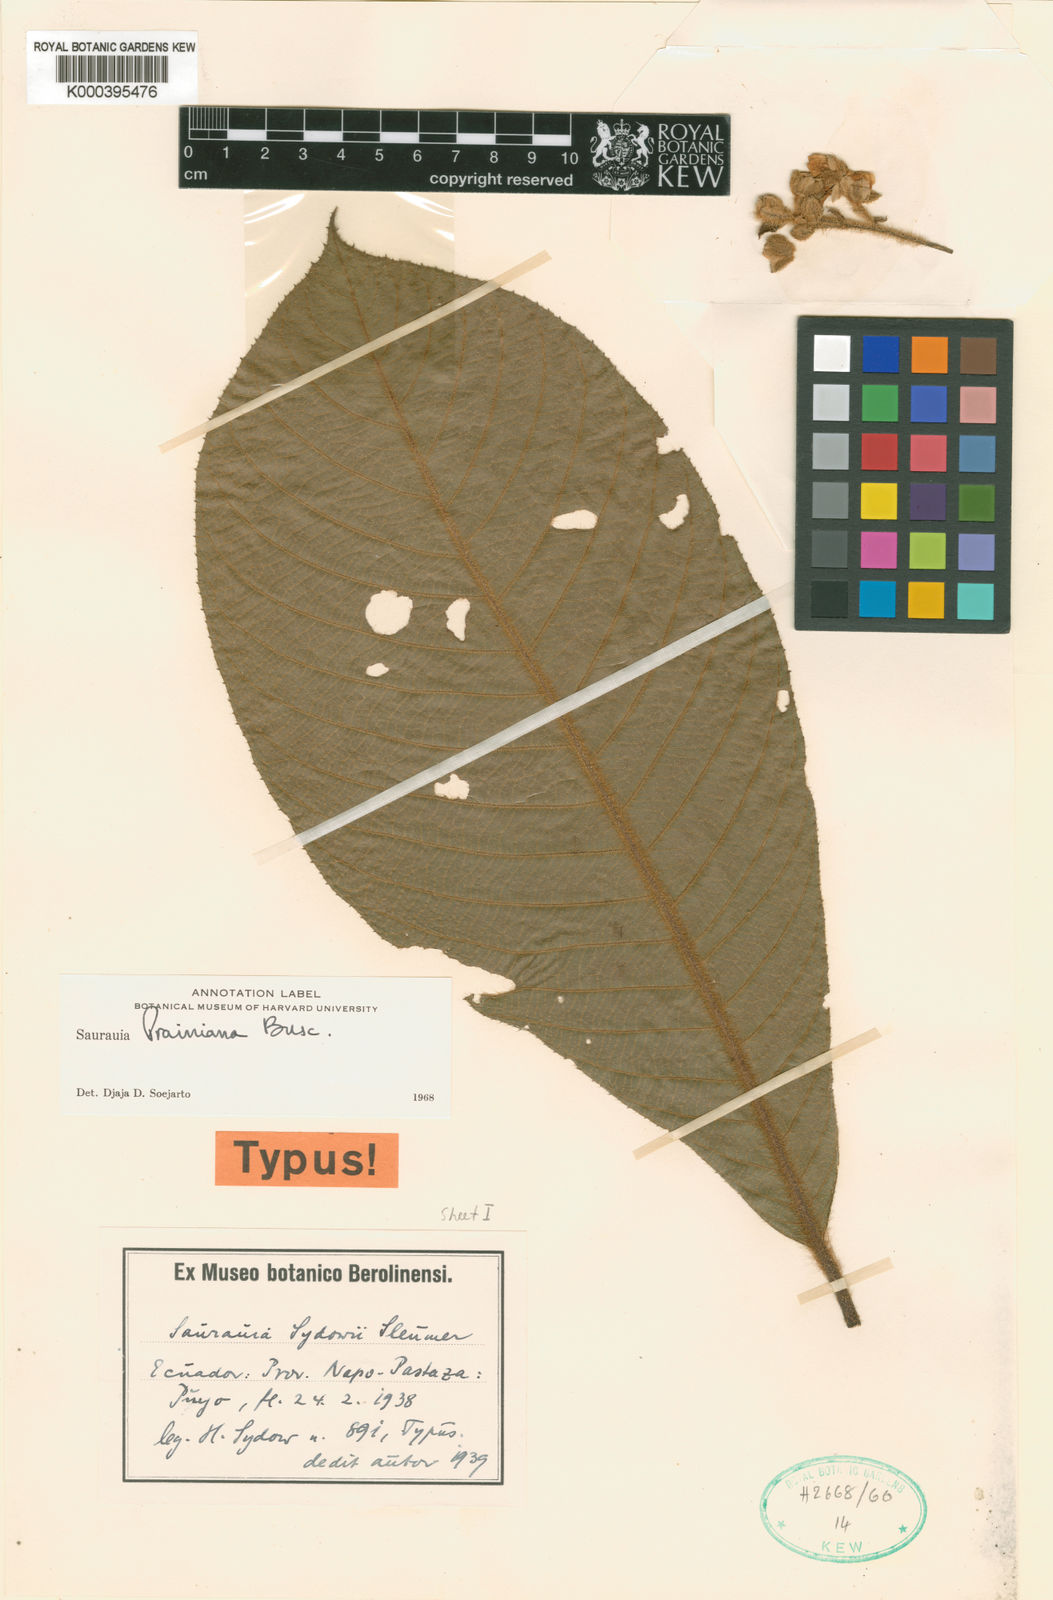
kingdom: Plantae
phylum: Tracheophyta
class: Magnoliopsida
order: Ericales
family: Actinidiaceae
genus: Saurauia
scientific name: Saurauia prainiana
